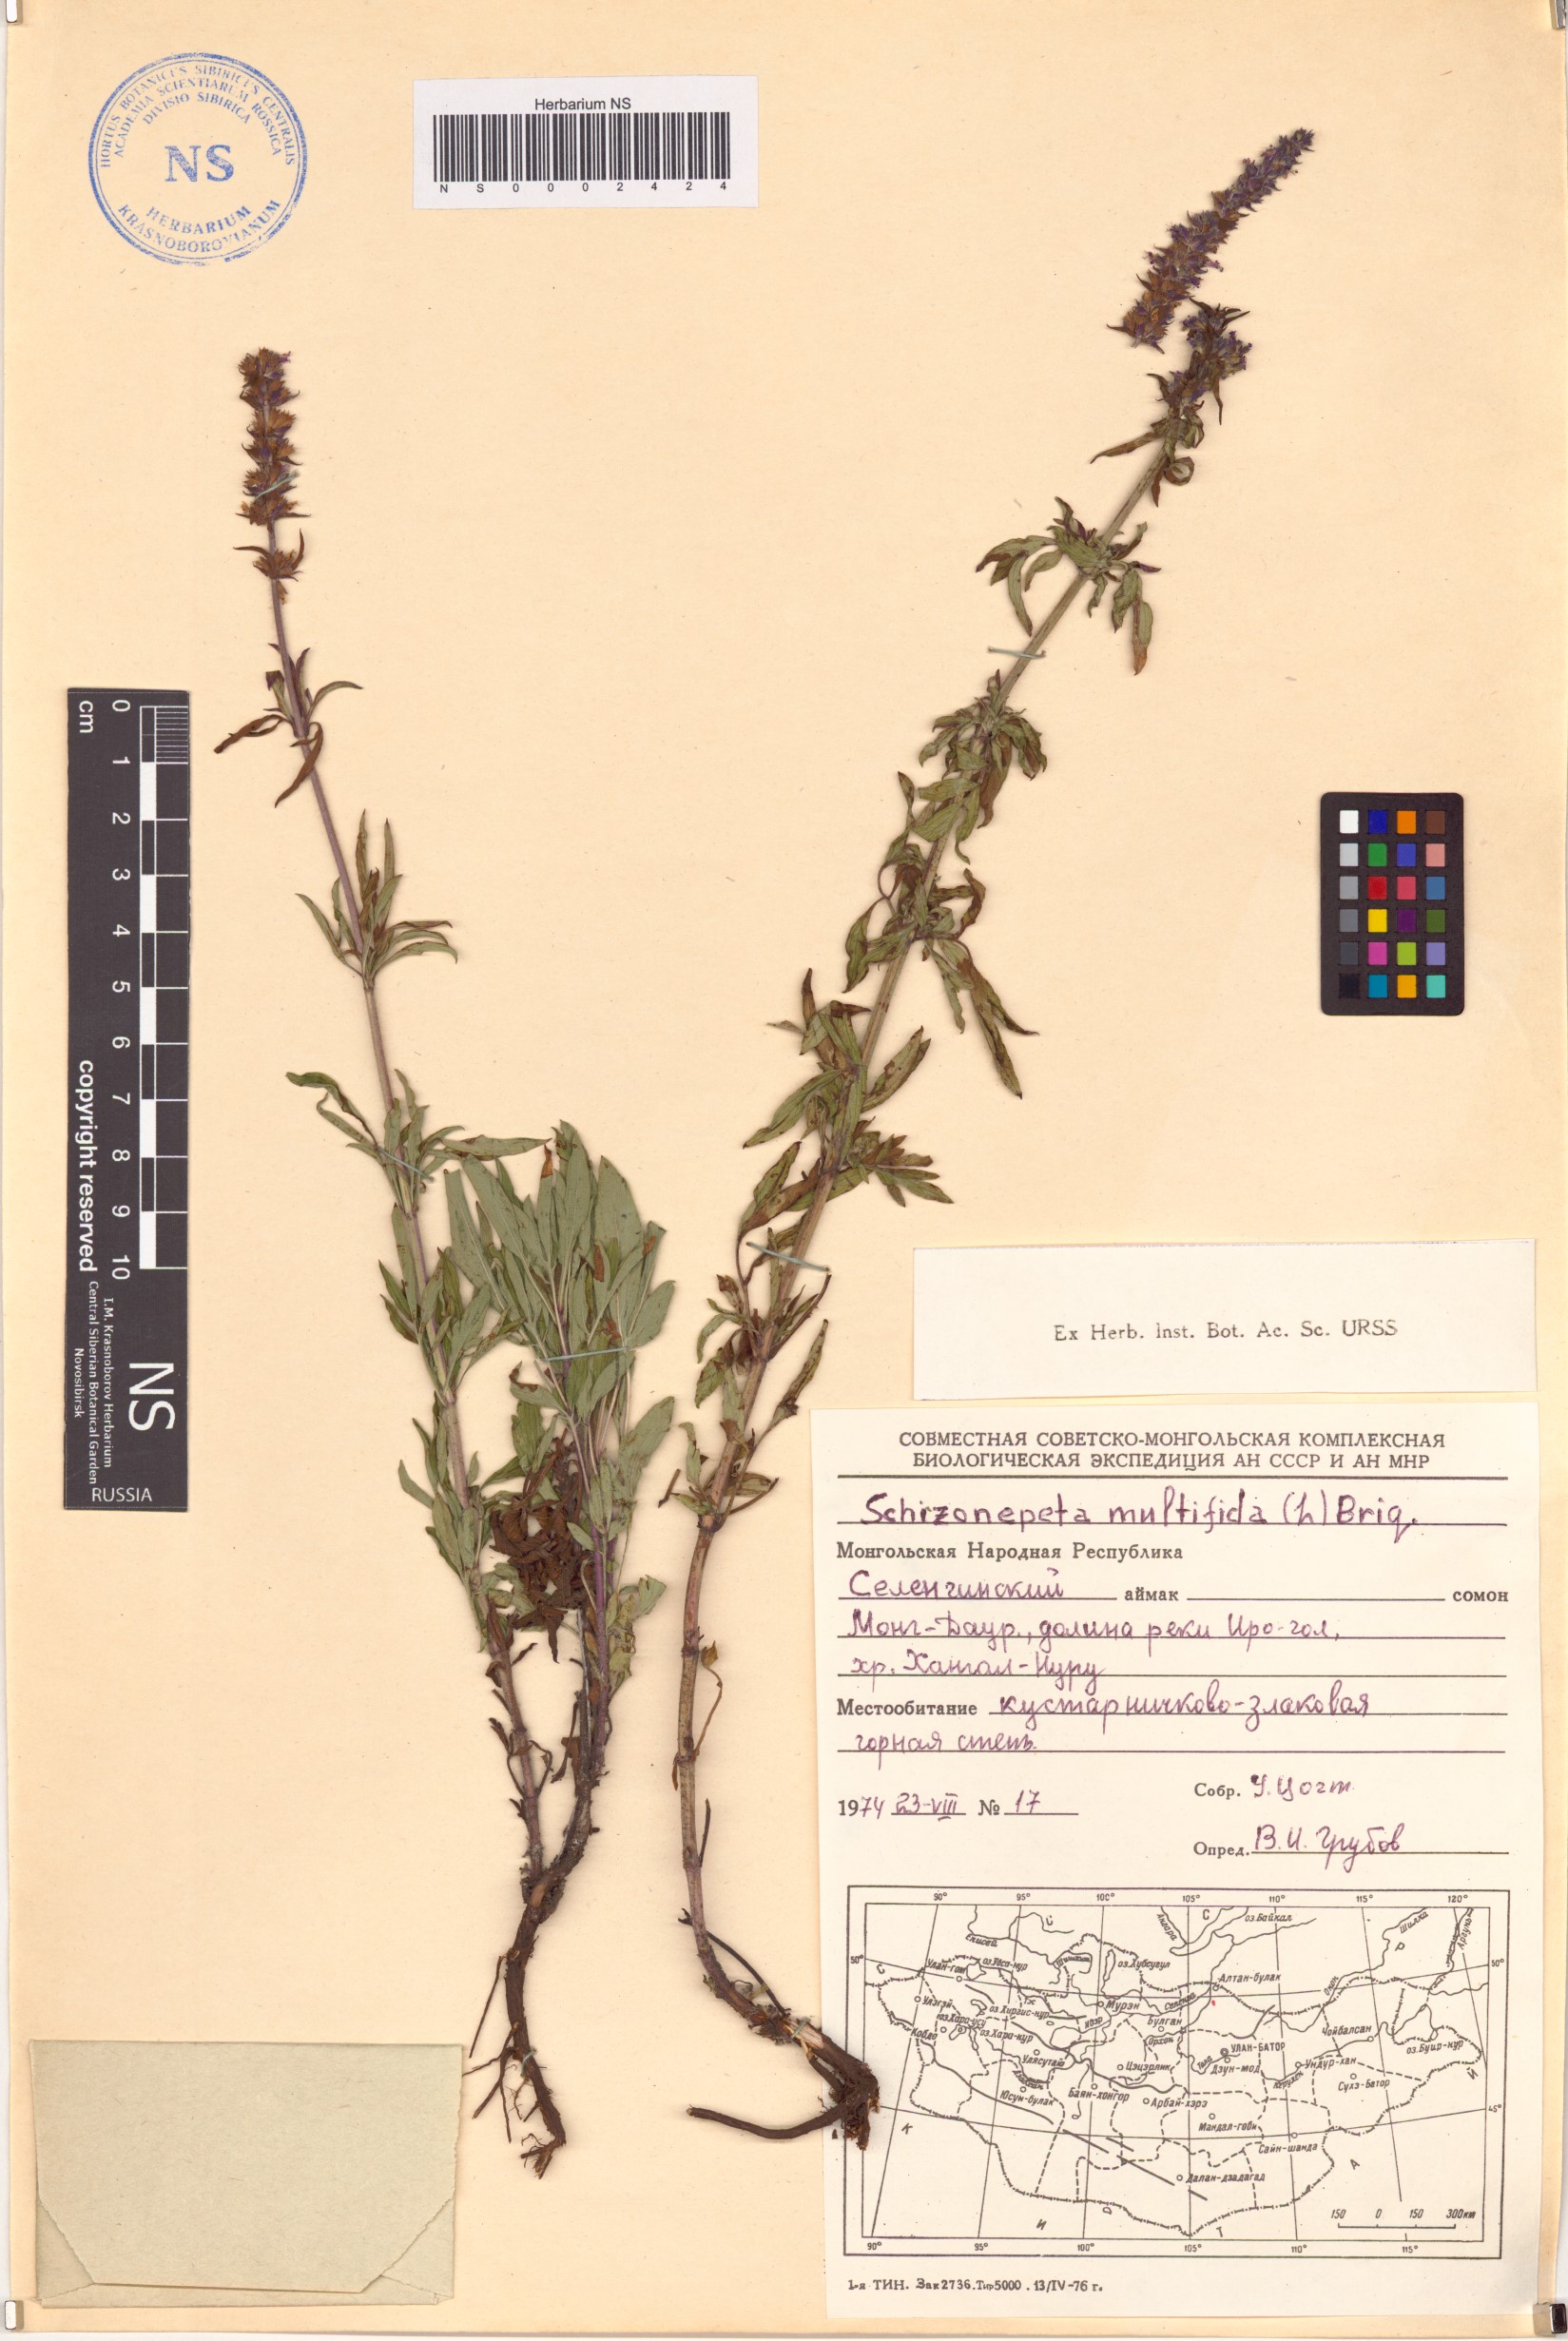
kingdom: Plantae
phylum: Tracheophyta
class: Magnoliopsida
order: Lamiales
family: Lamiaceae
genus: Nepeta
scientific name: Nepeta multifida
